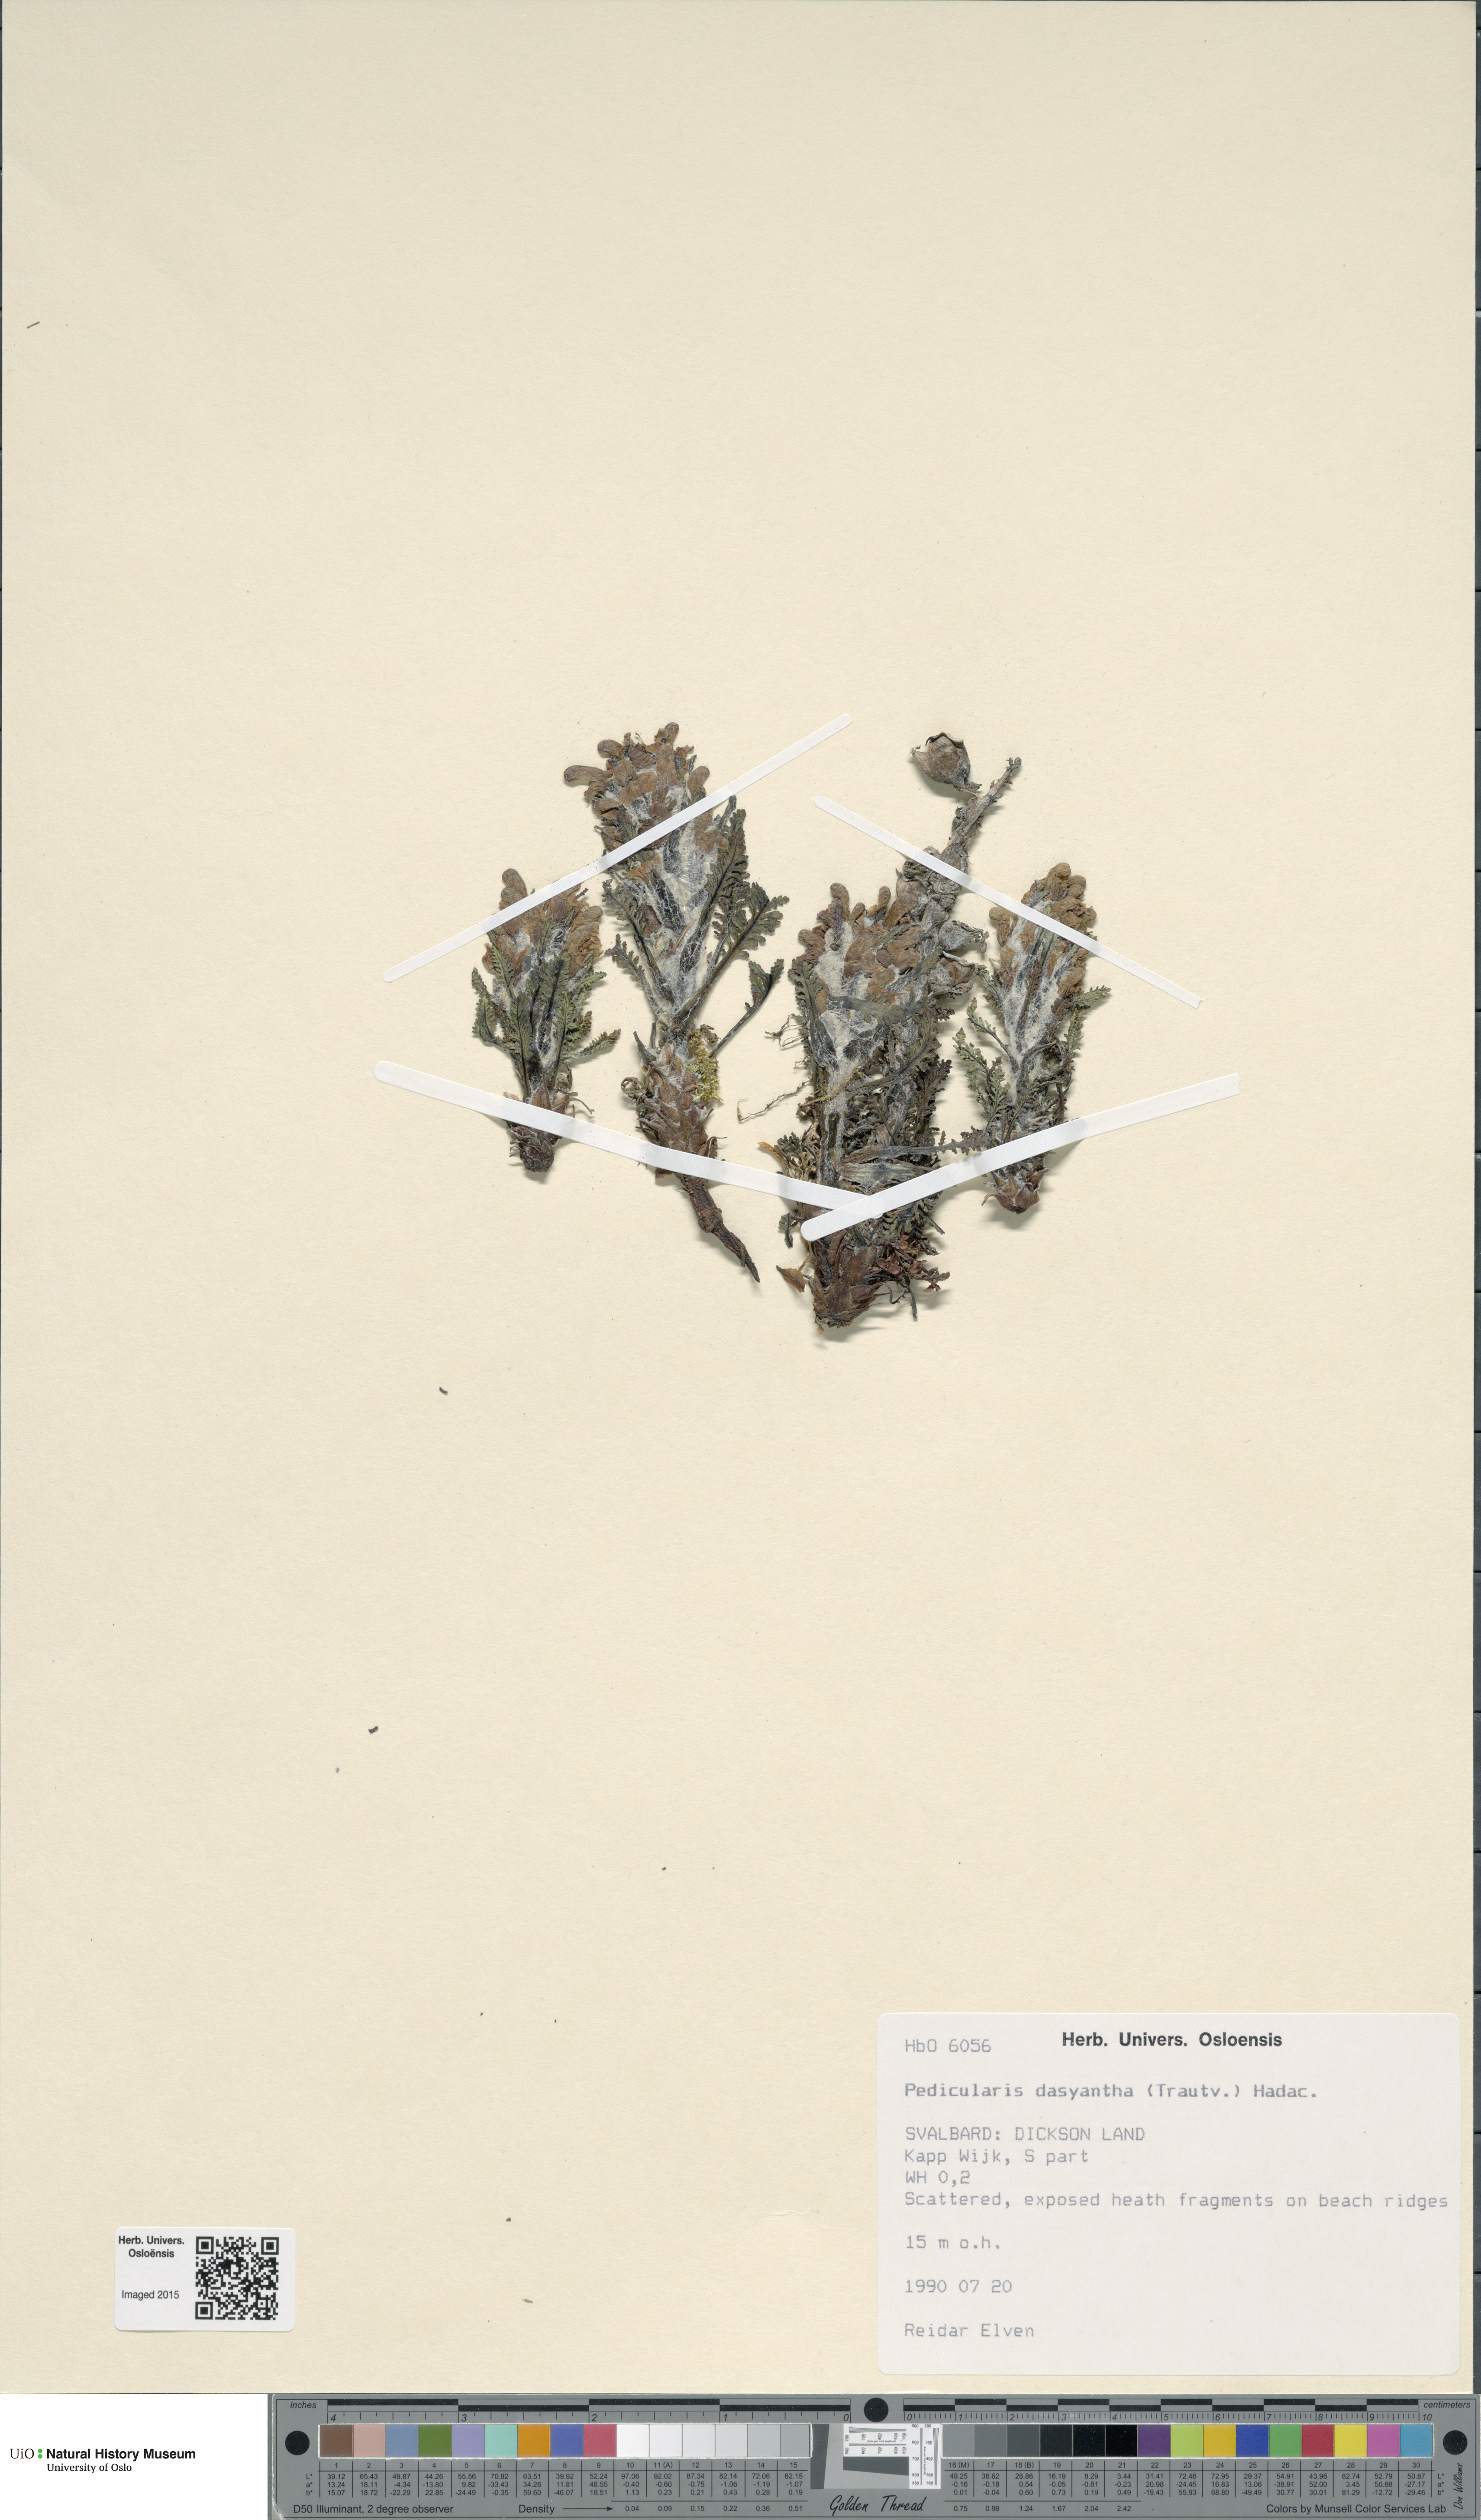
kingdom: Plantae
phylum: Tracheophyta
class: Magnoliopsida
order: Lamiales
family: Orobanchaceae
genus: Pedicularis
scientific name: Pedicularis dasyantha
